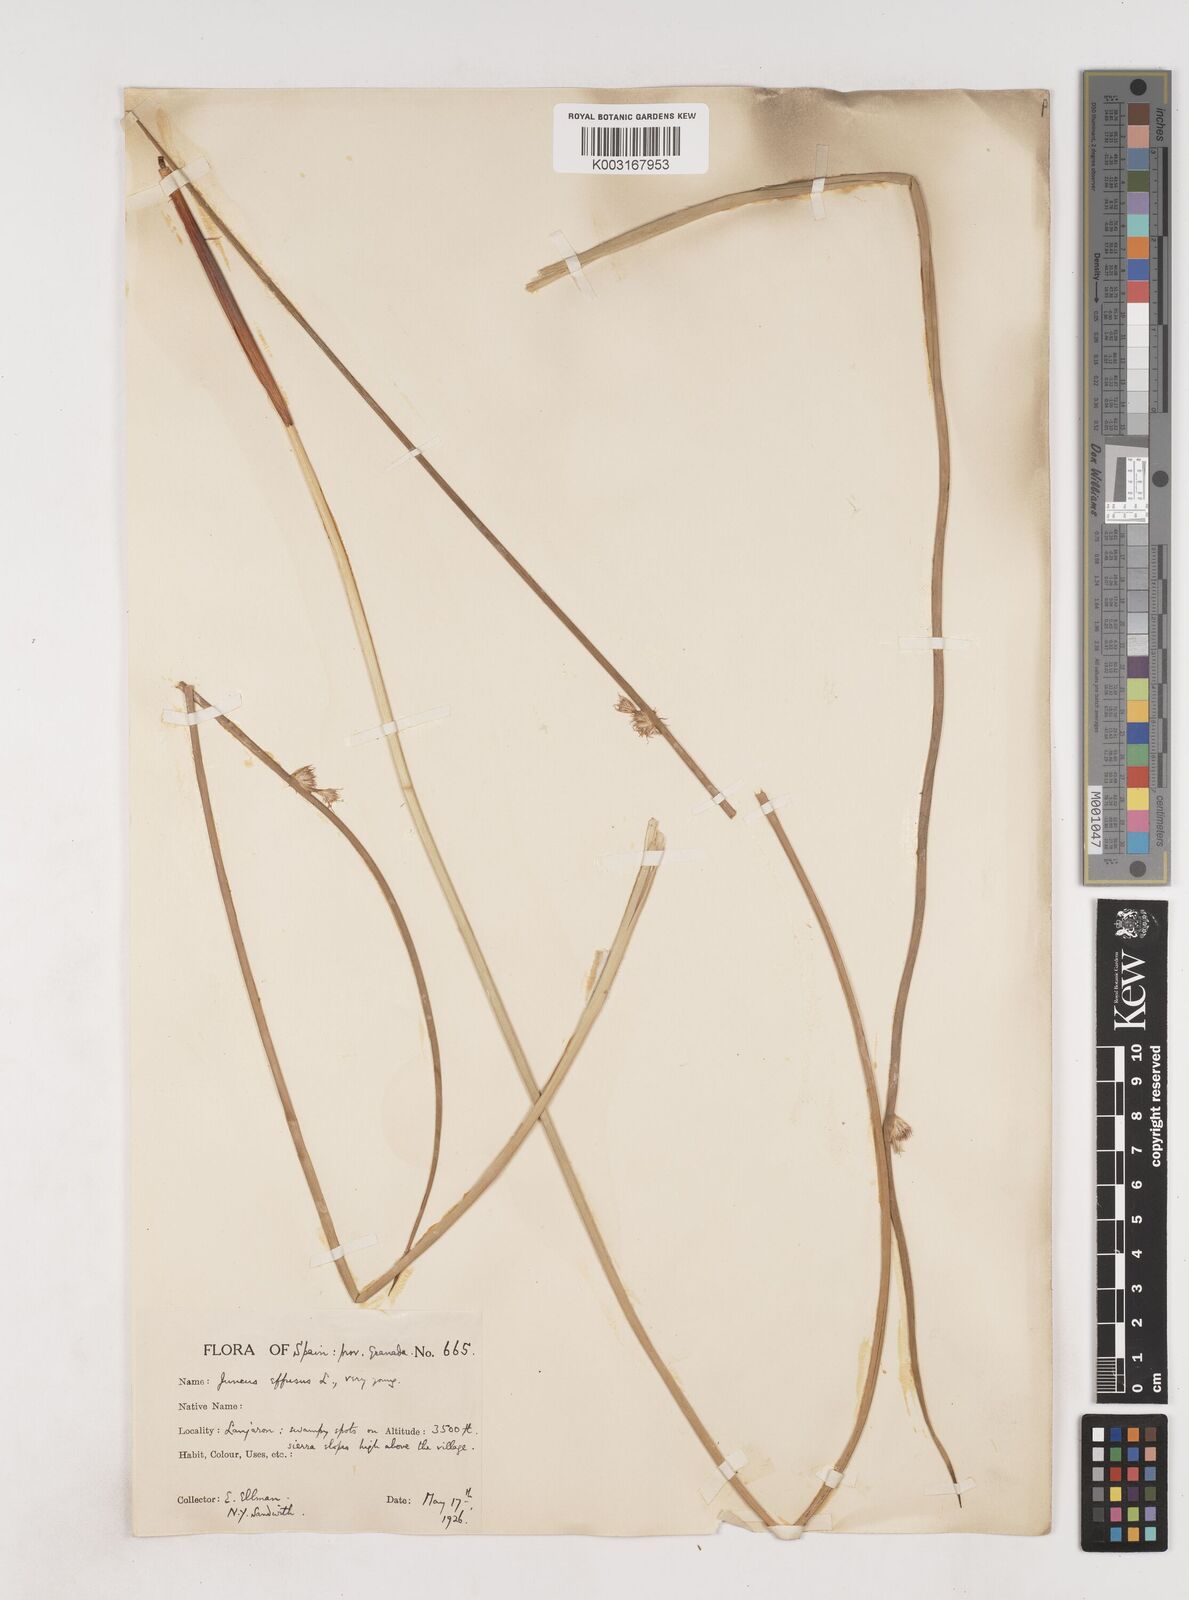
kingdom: Plantae
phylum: Tracheophyta
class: Liliopsida
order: Poales
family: Juncaceae
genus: Juncus
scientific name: Juncus effusus
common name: Soft rush
